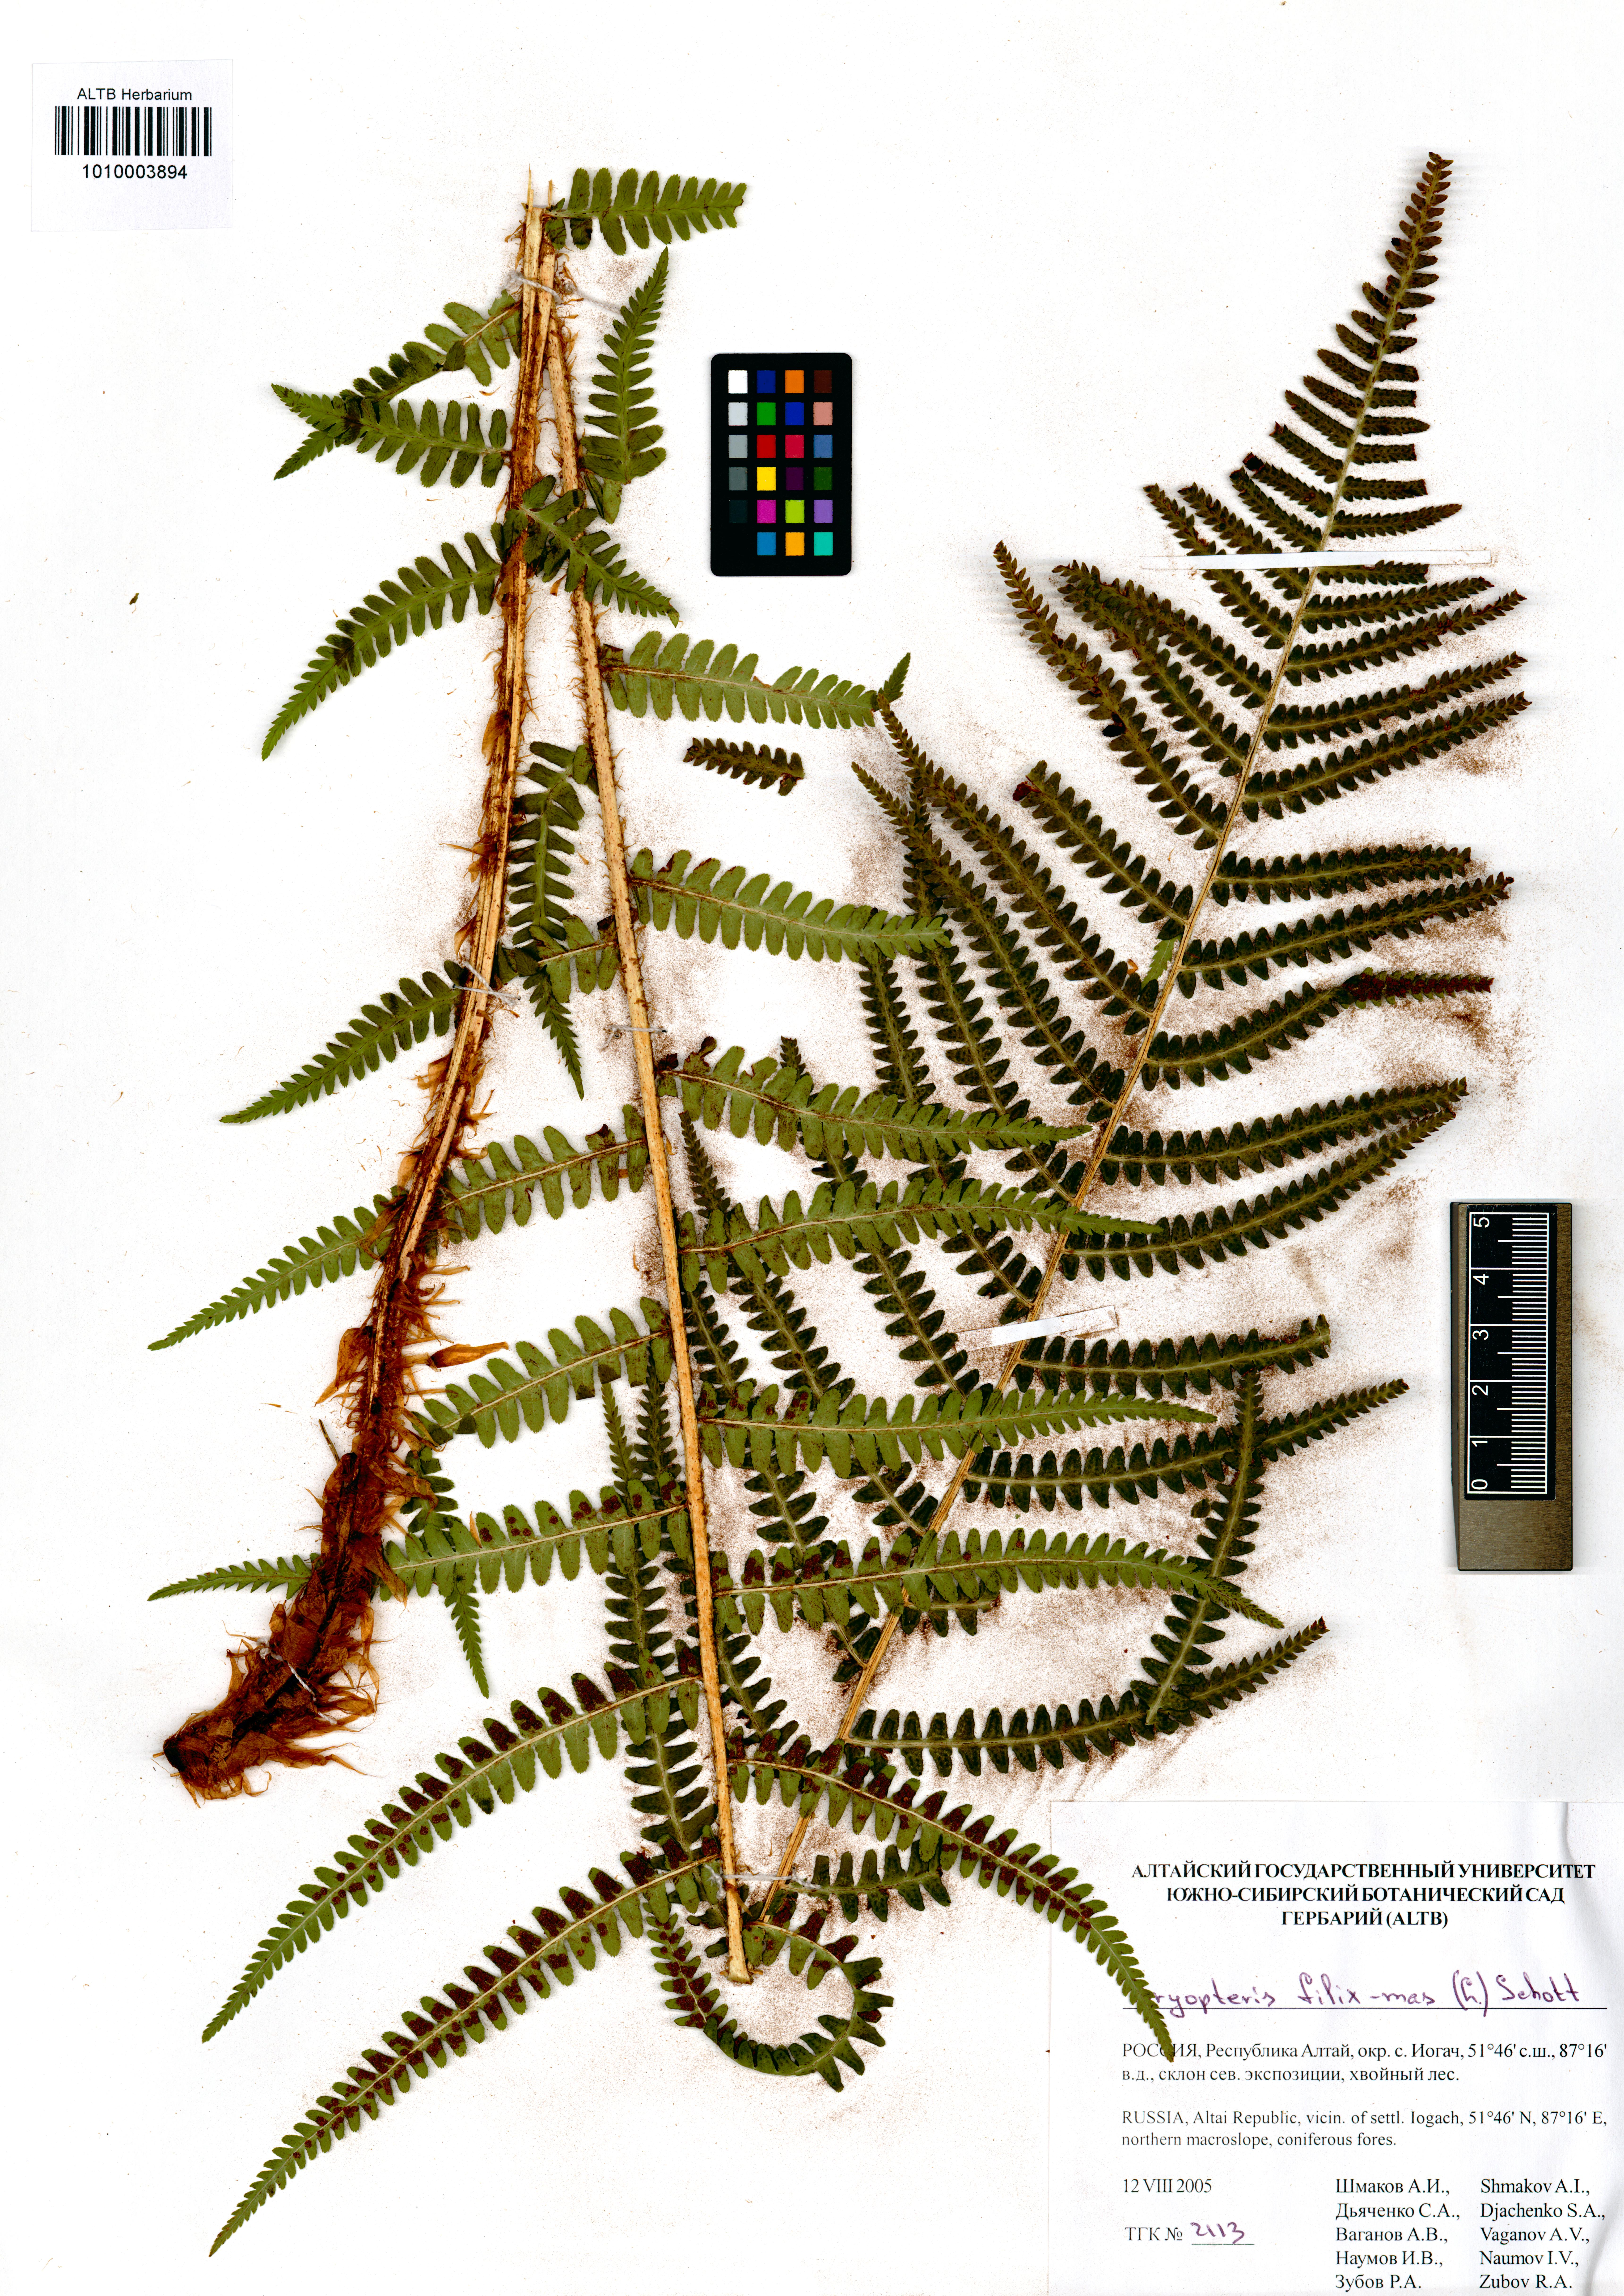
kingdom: Plantae
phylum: Tracheophyta
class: Polypodiopsida
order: Polypodiales
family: Dryopteridaceae
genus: Dryopteris
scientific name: Dryopteris filix-mas
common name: Male fern
